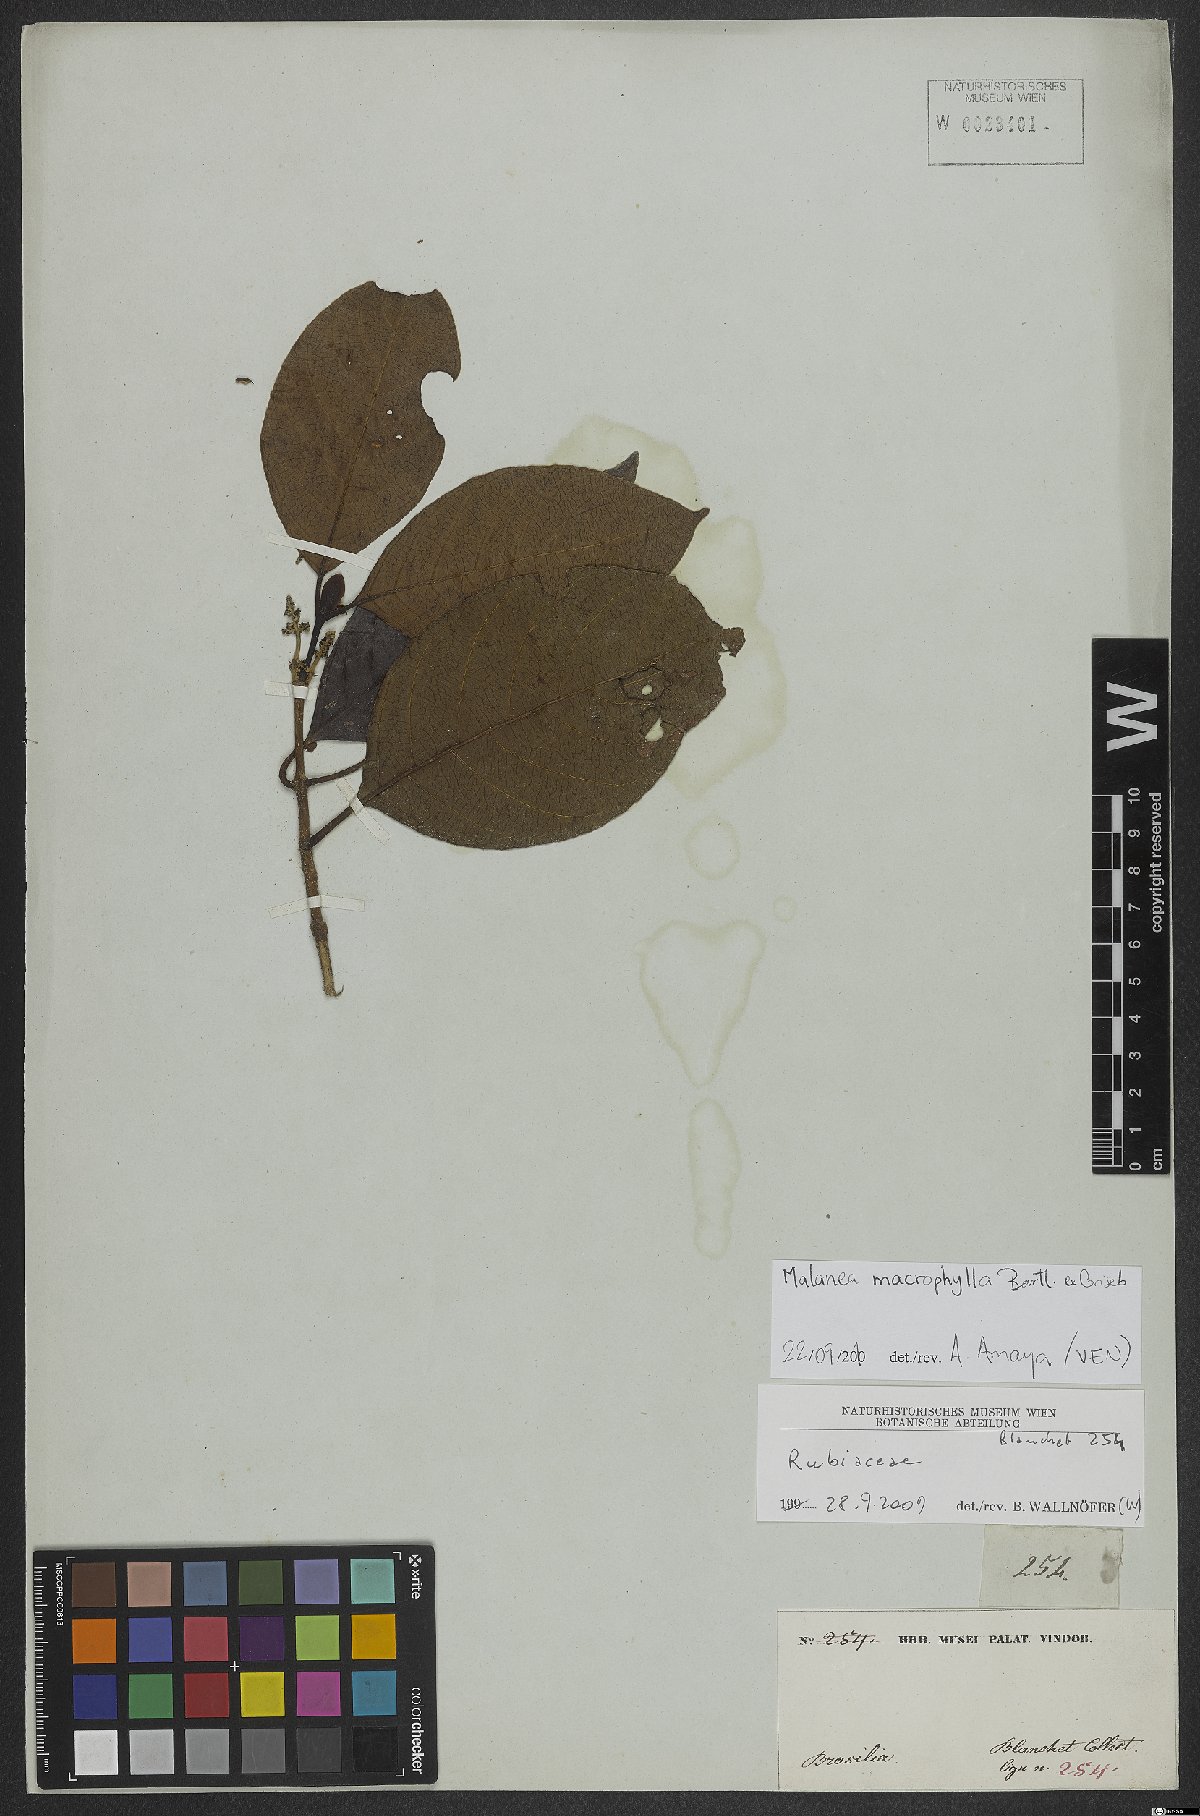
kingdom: Plantae
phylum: Tracheophyta
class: Magnoliopsida
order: Gentianales
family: Rubiaceae
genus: Malanea
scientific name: Malanea glabra
